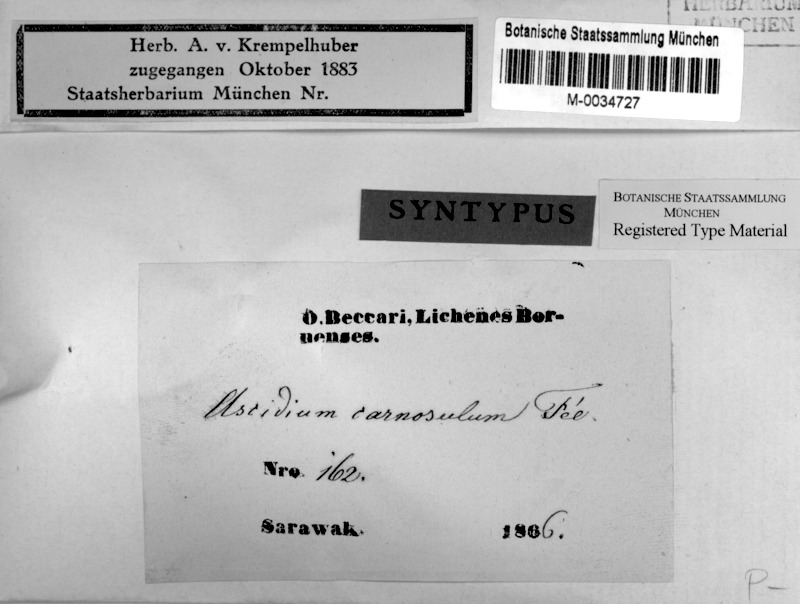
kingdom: Fungi
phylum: Ascomycota
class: Lecanoromycetes
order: Ostropales
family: Graphidaceae
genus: Ocellularia
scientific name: Ocellularia carnosula
